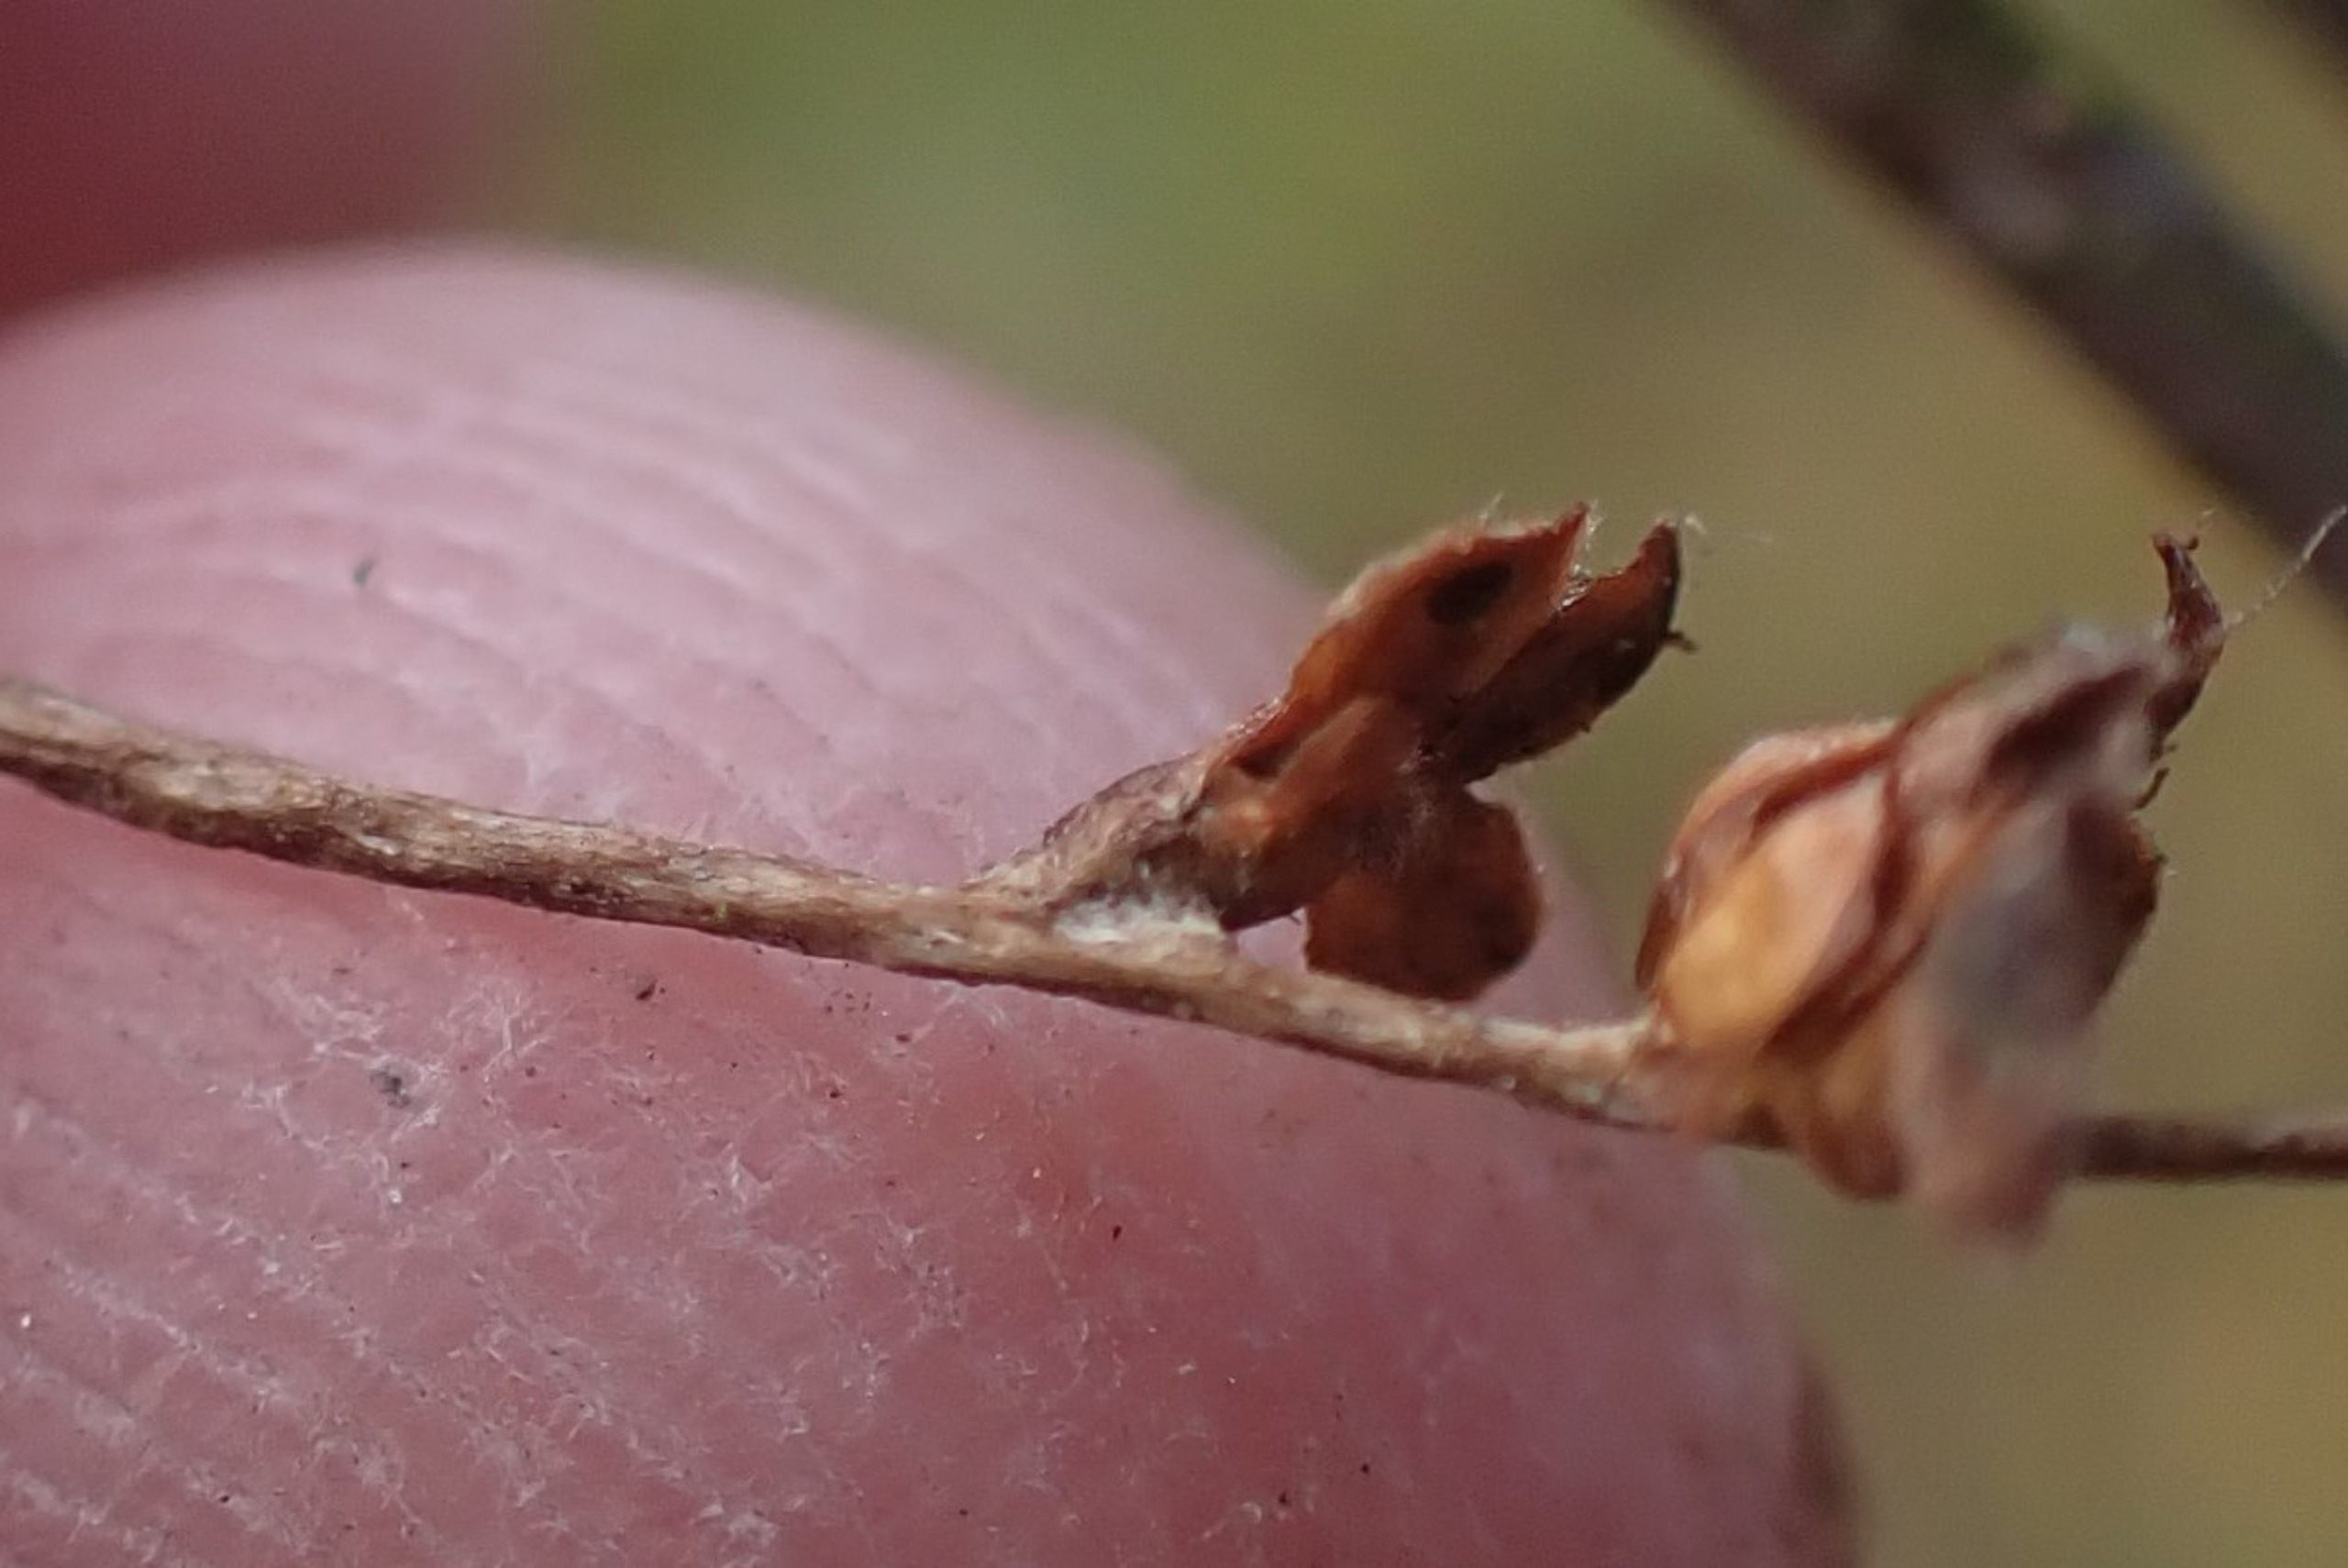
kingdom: Animalia
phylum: Arthropoda
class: Insecta
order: Diptera
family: Cecidomyiidae
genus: Oligotrophus
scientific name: Oligotrophus skuhravae
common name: Rakleskælgalmyg
